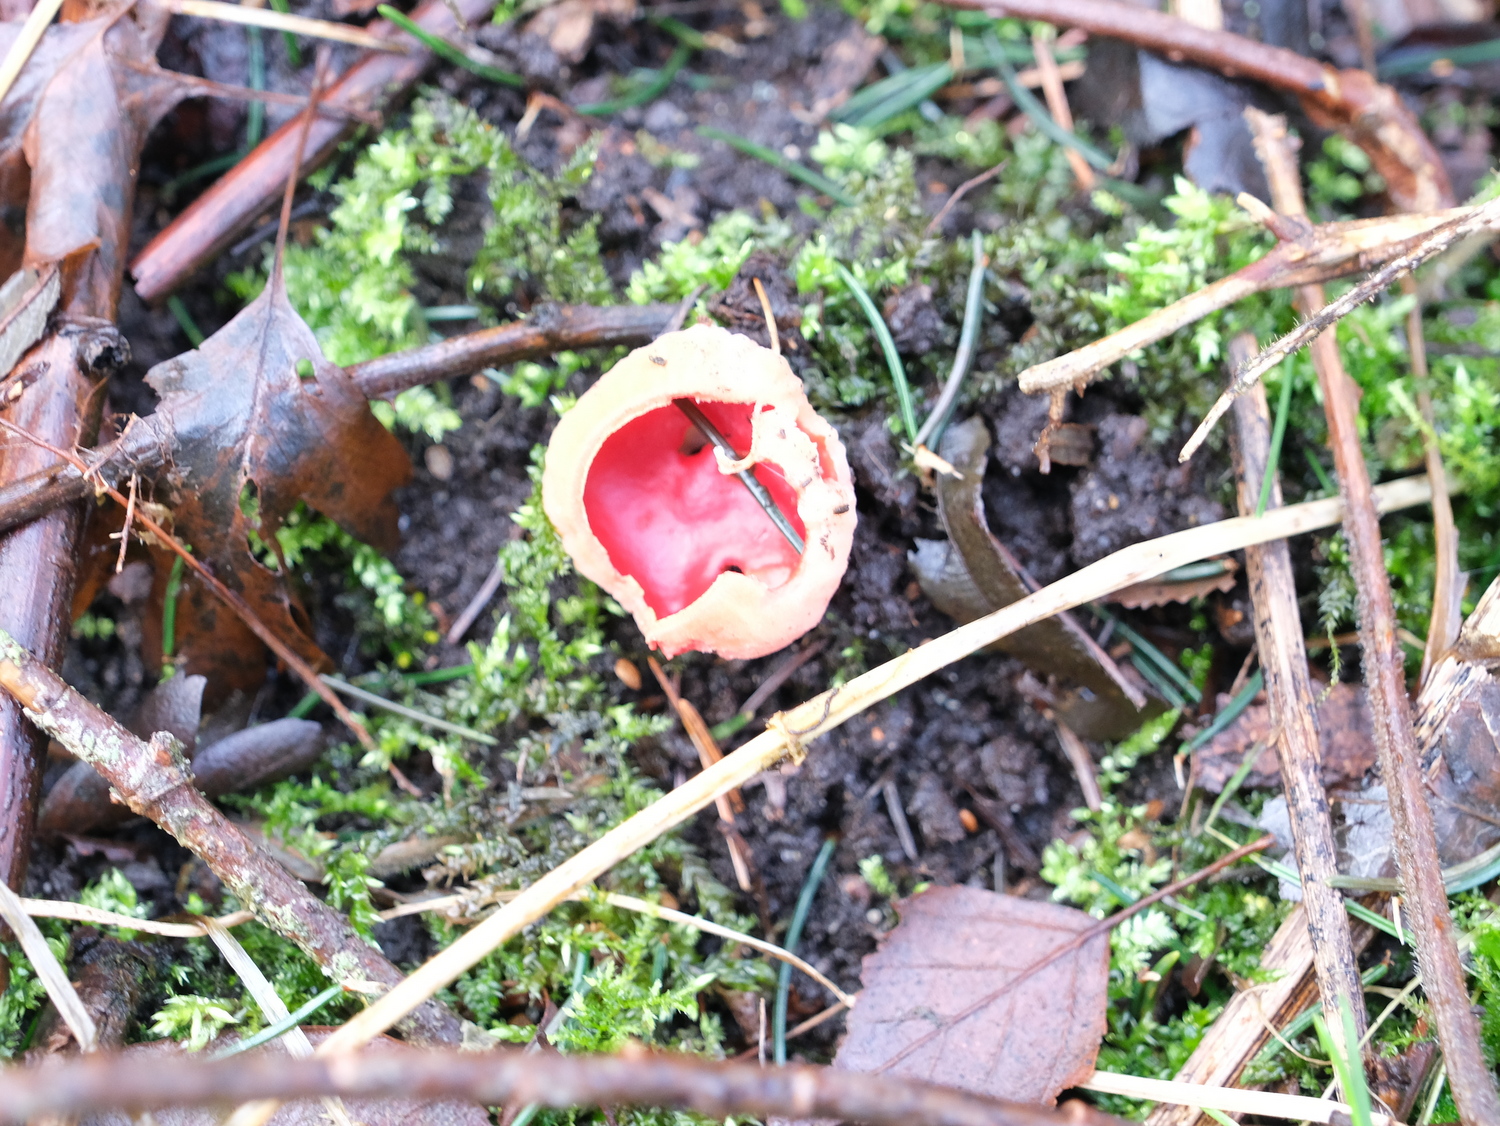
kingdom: Fungi
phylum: Ascomycota
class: Pezizomycetes
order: Pezizales
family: Sarcoscyphaceae
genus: Sarcoscypha
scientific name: Sarcoscypha austriaca
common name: krølhåret pragtbæger
